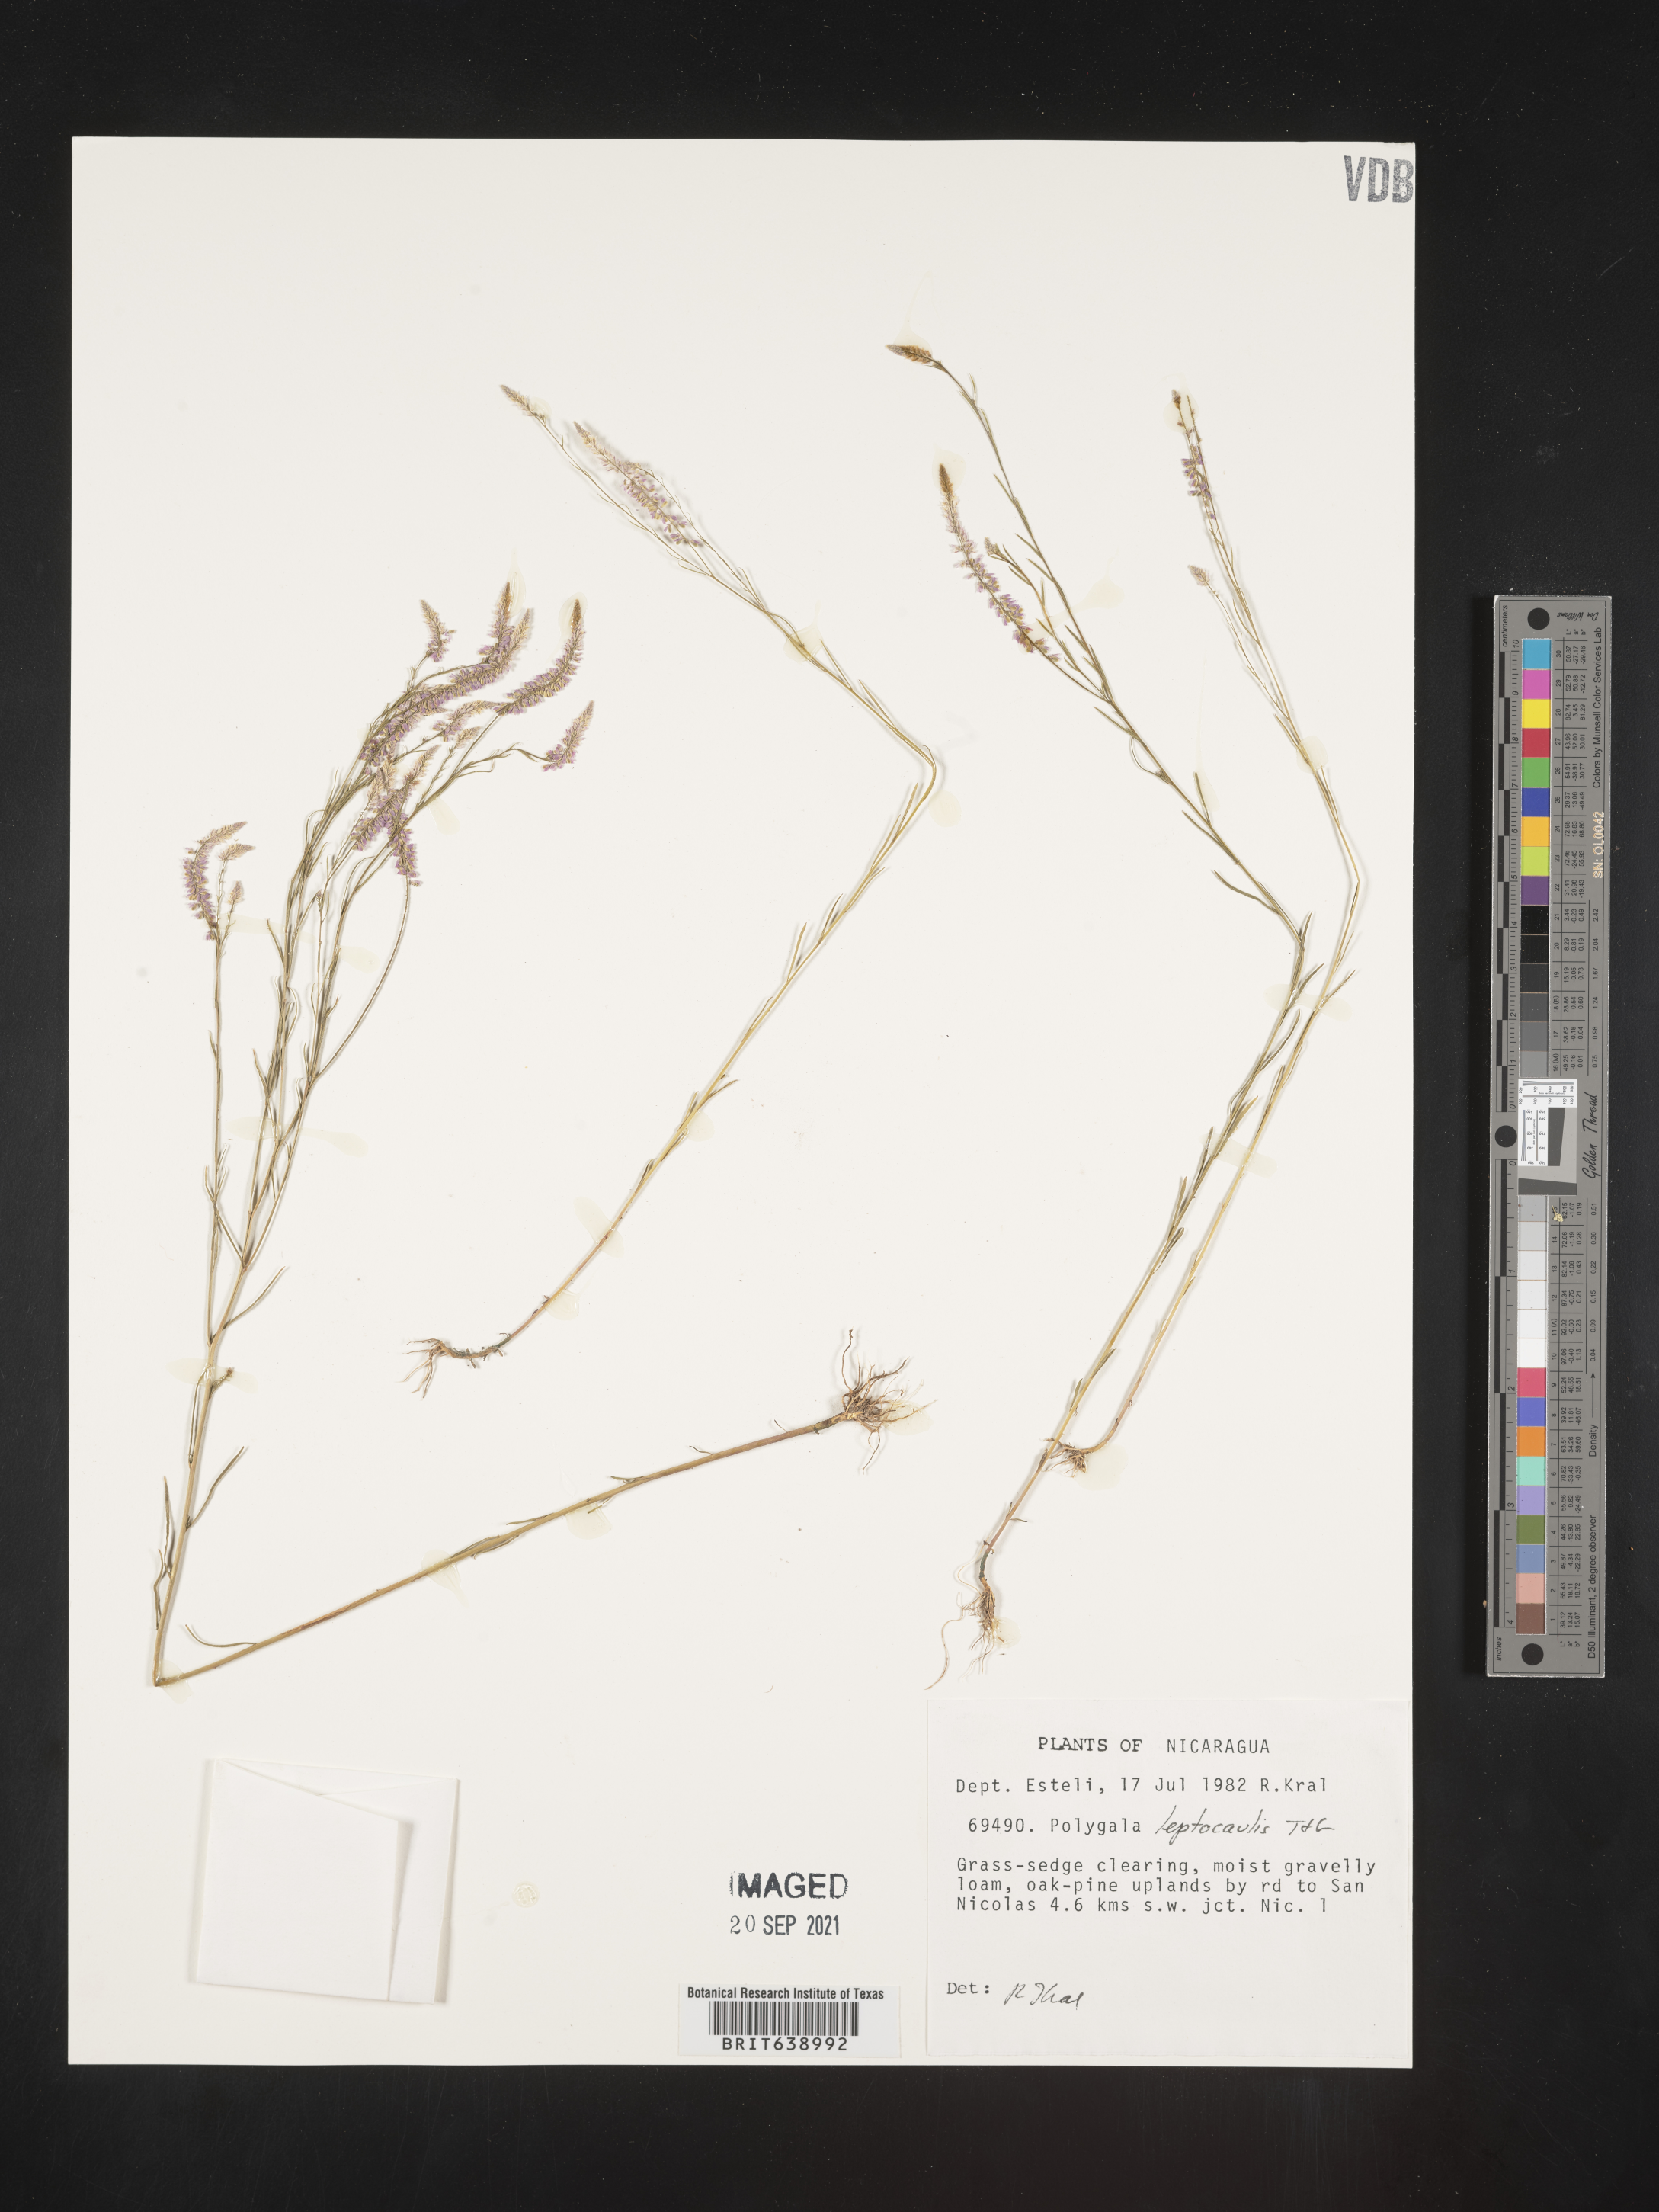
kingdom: Plantae
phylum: Tracheophyta
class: Magnoliopsida
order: Fabales
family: Polygalaceae
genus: Polygala
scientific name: Polygala
